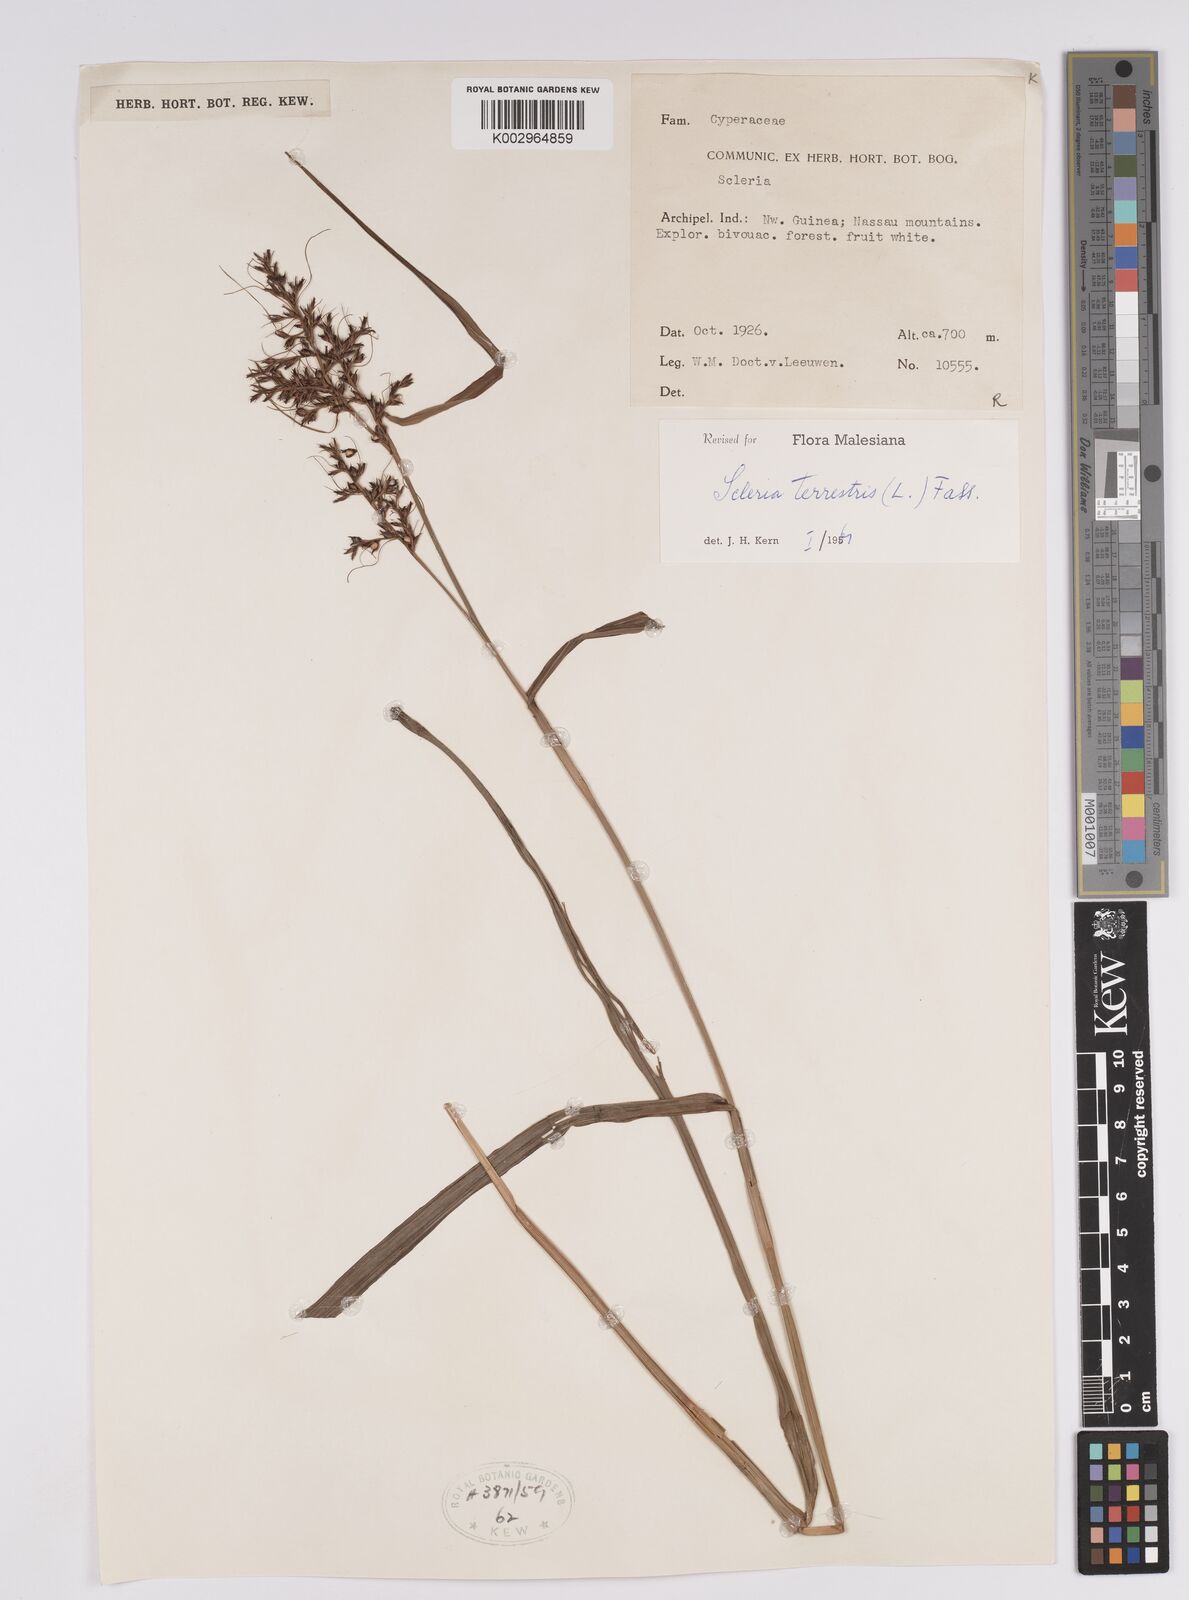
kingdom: Plantae
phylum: Tracheophyta
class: Liliopsida
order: Poales
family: Cyperaceae
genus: Scleria
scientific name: Scleria terrestris
